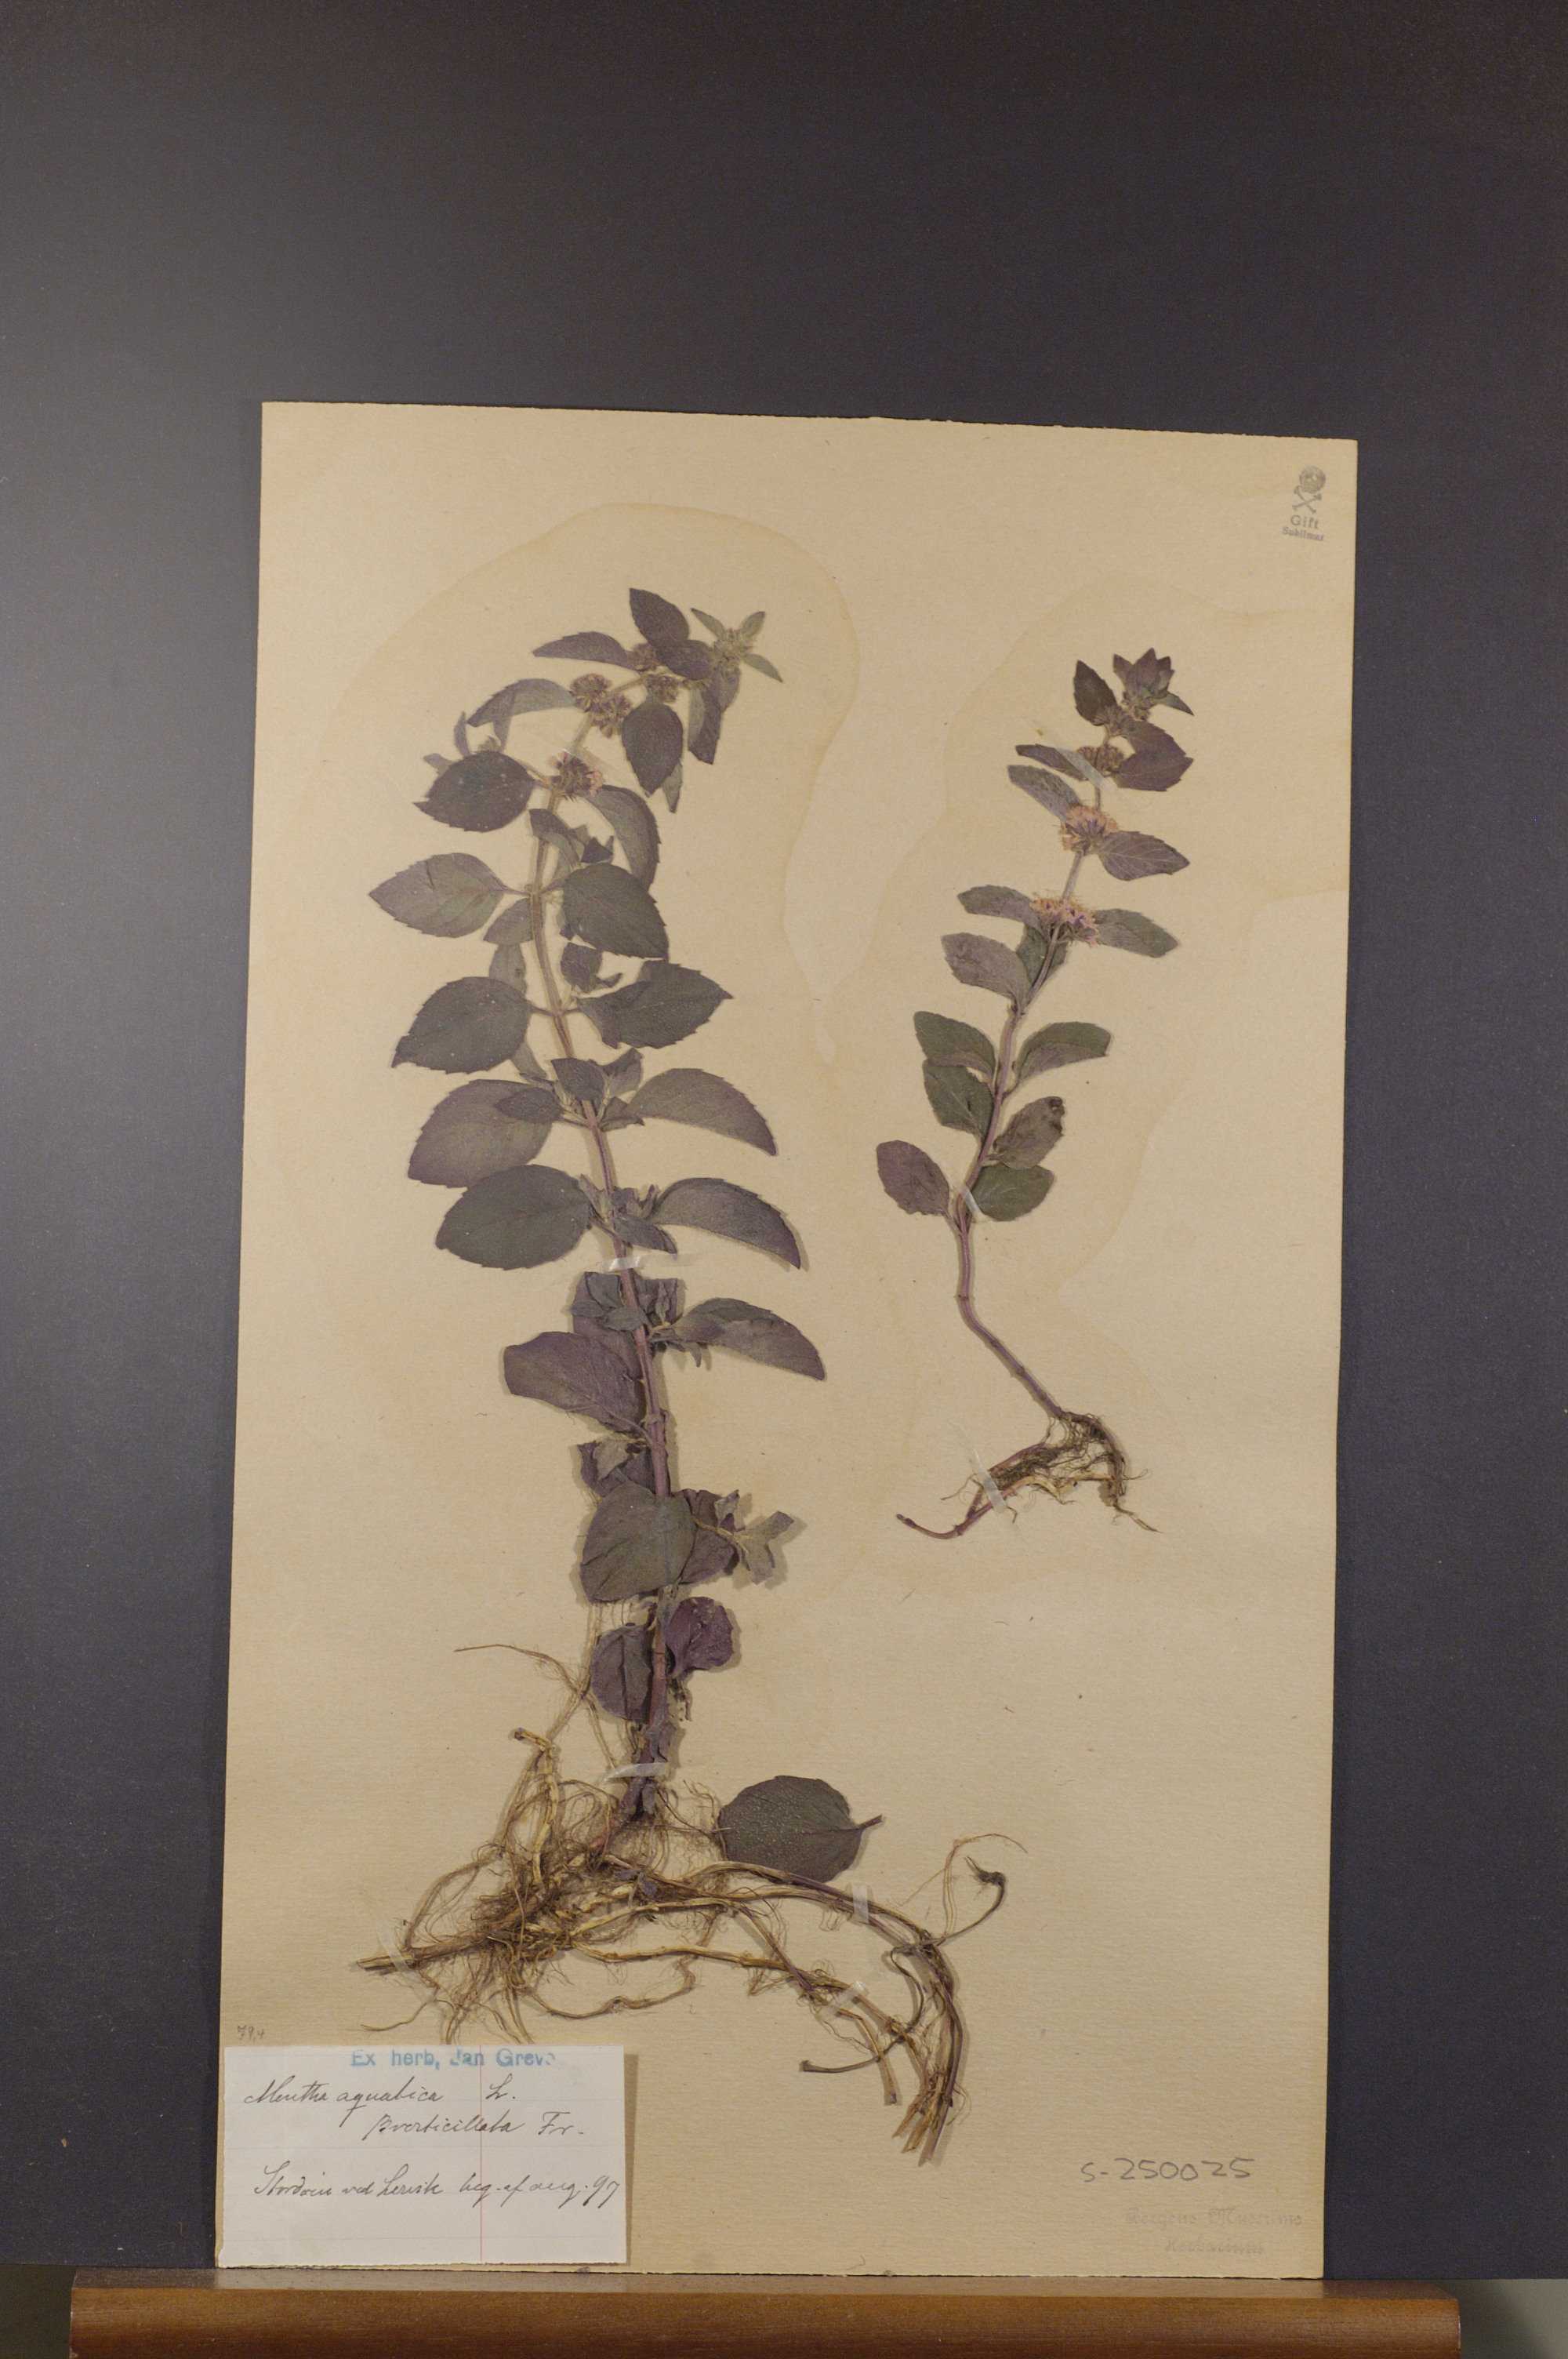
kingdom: Plantae
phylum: Tracheophyta
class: Magnoliopsida
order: Lamiales
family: Lamiaceae
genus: Mentha
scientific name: Mentha aquatica
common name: Water mint
